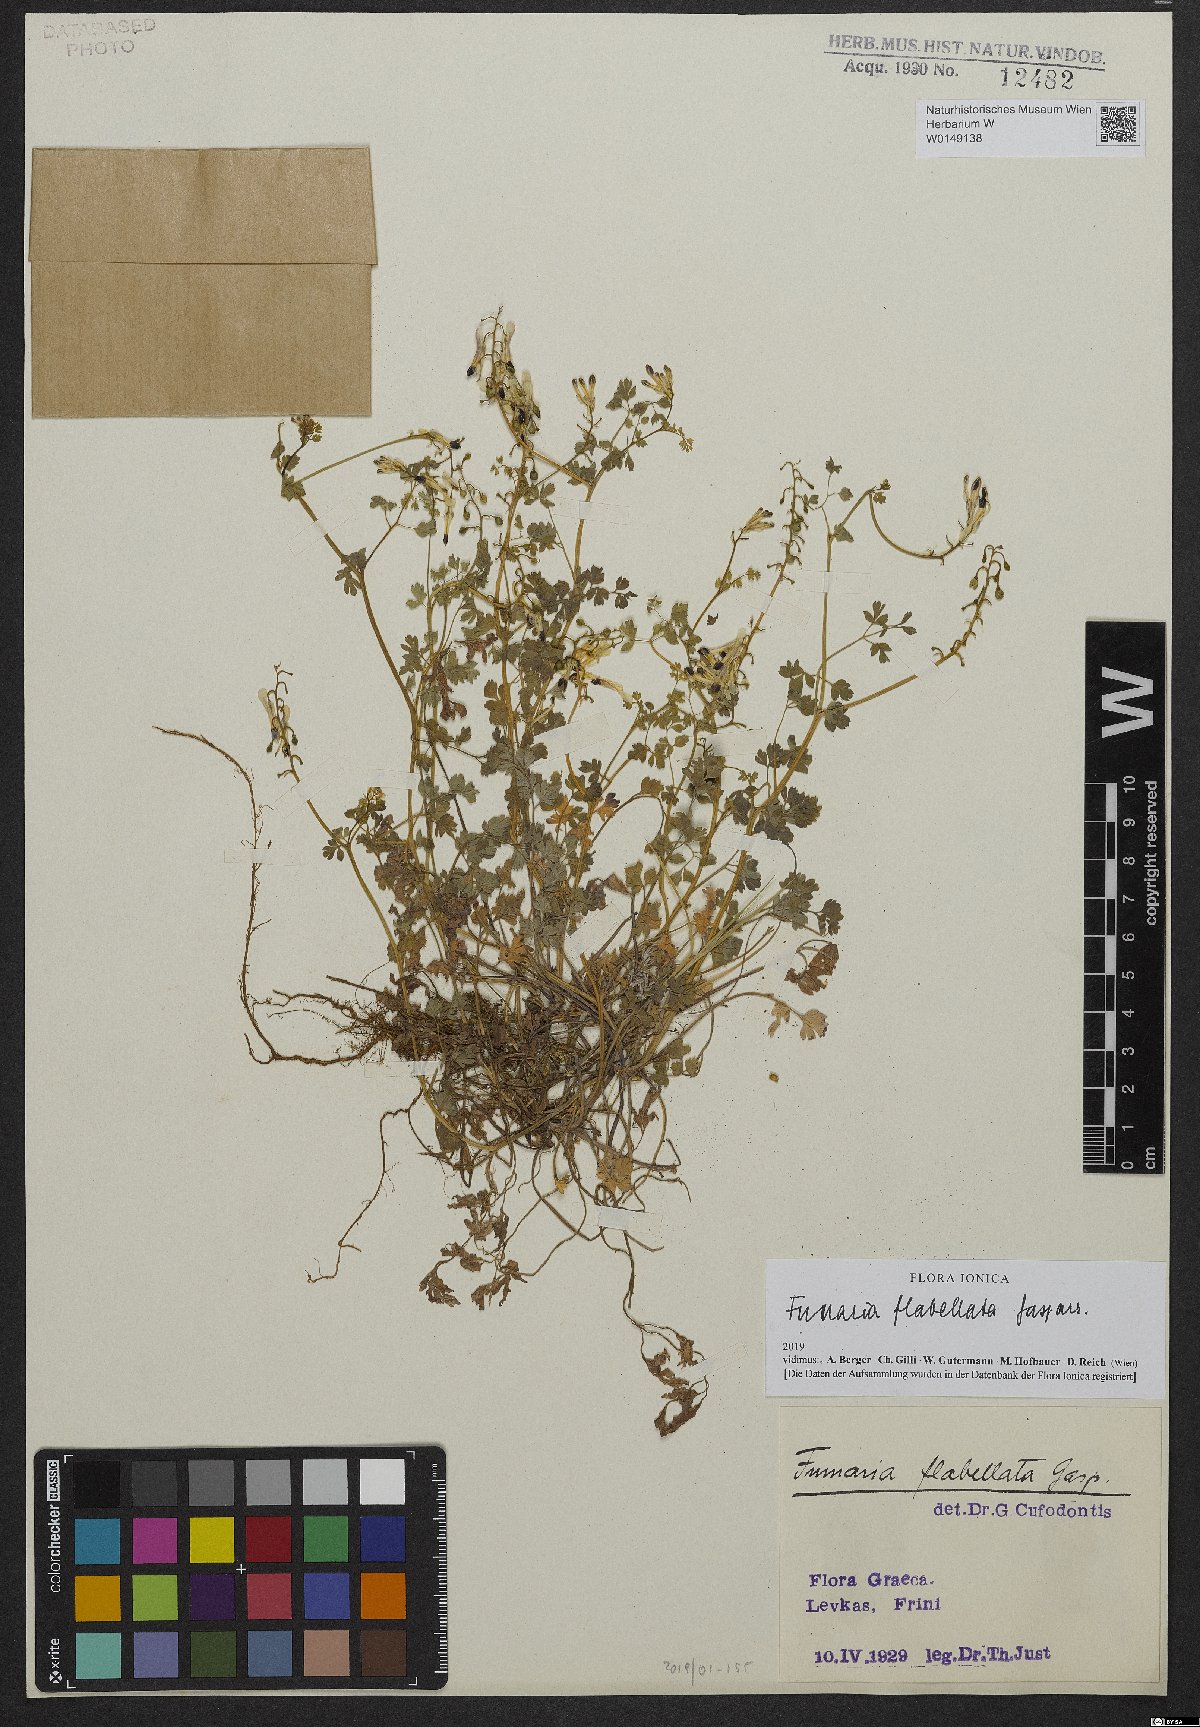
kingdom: Plantae
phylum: Tracheophyta
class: Magnoliopsida
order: Ranunculales
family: Papaveraceae
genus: Fumaria
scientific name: Fumaria flabellata
